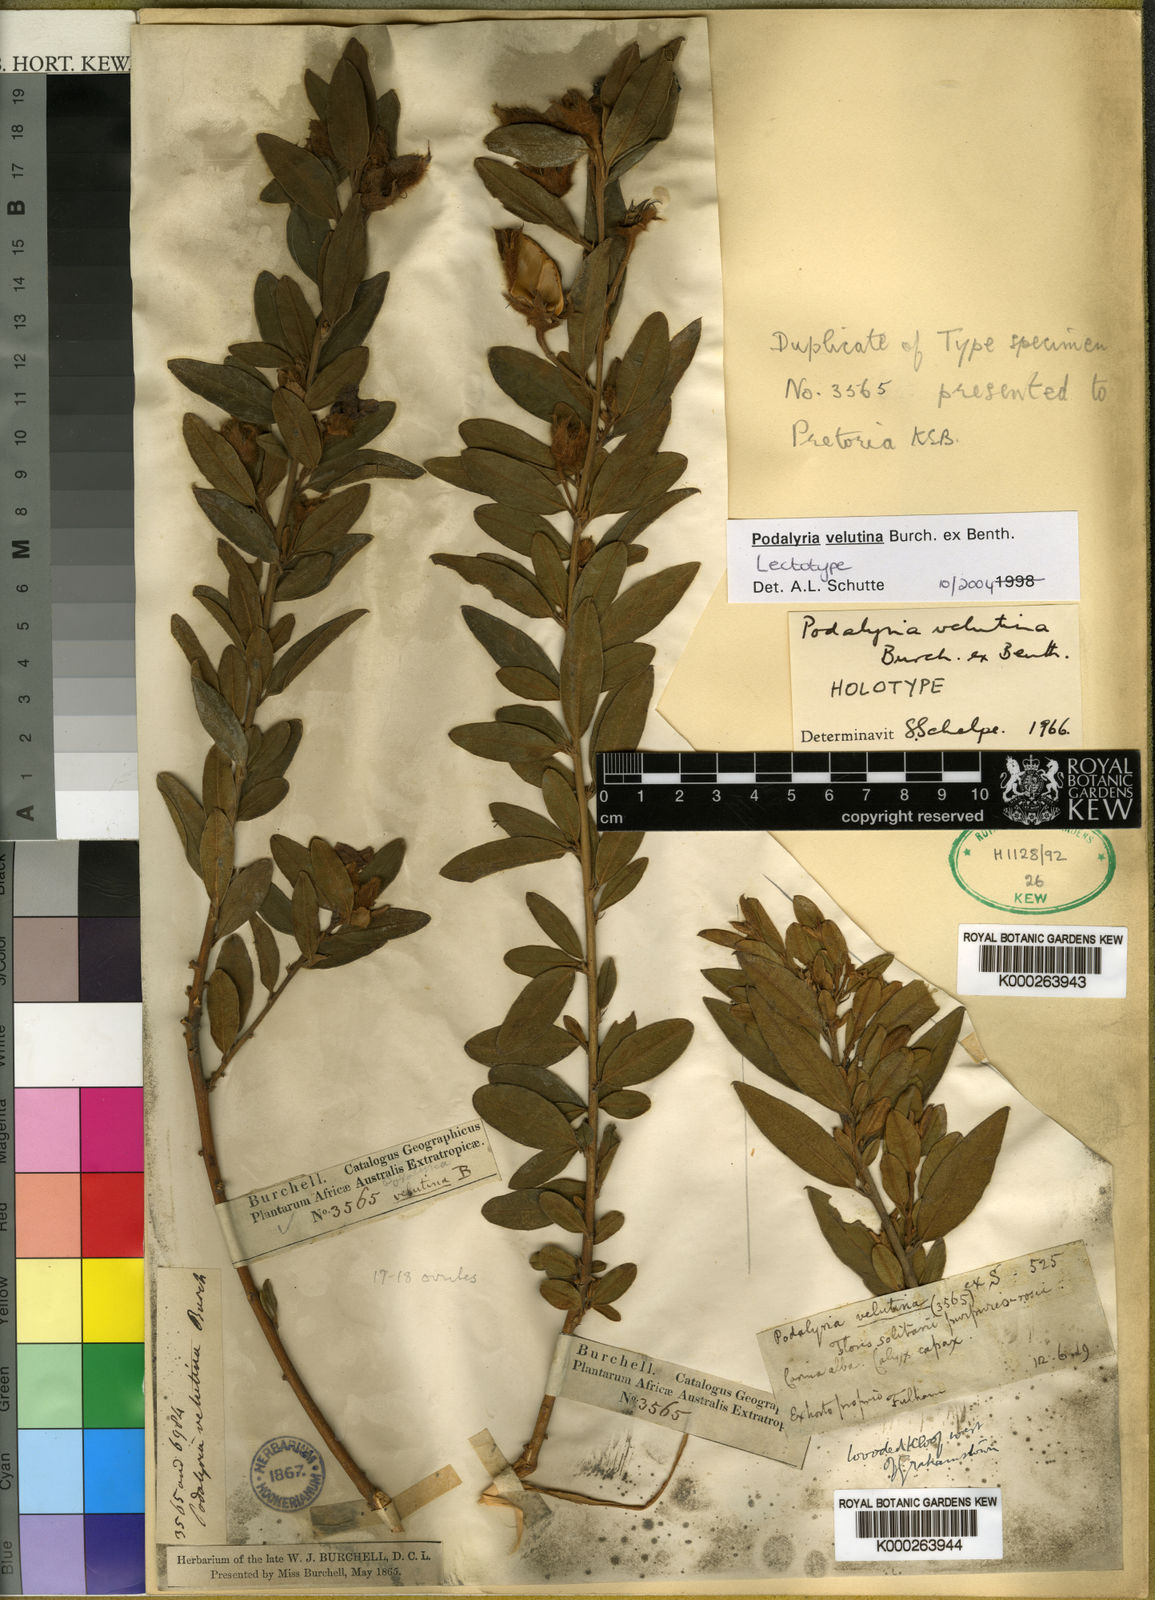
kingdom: Plantae
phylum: Tracheophyta
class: Magnoliopsida
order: Fabales
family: Fabaceae
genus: Podalyria
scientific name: Podalyria burchellii
